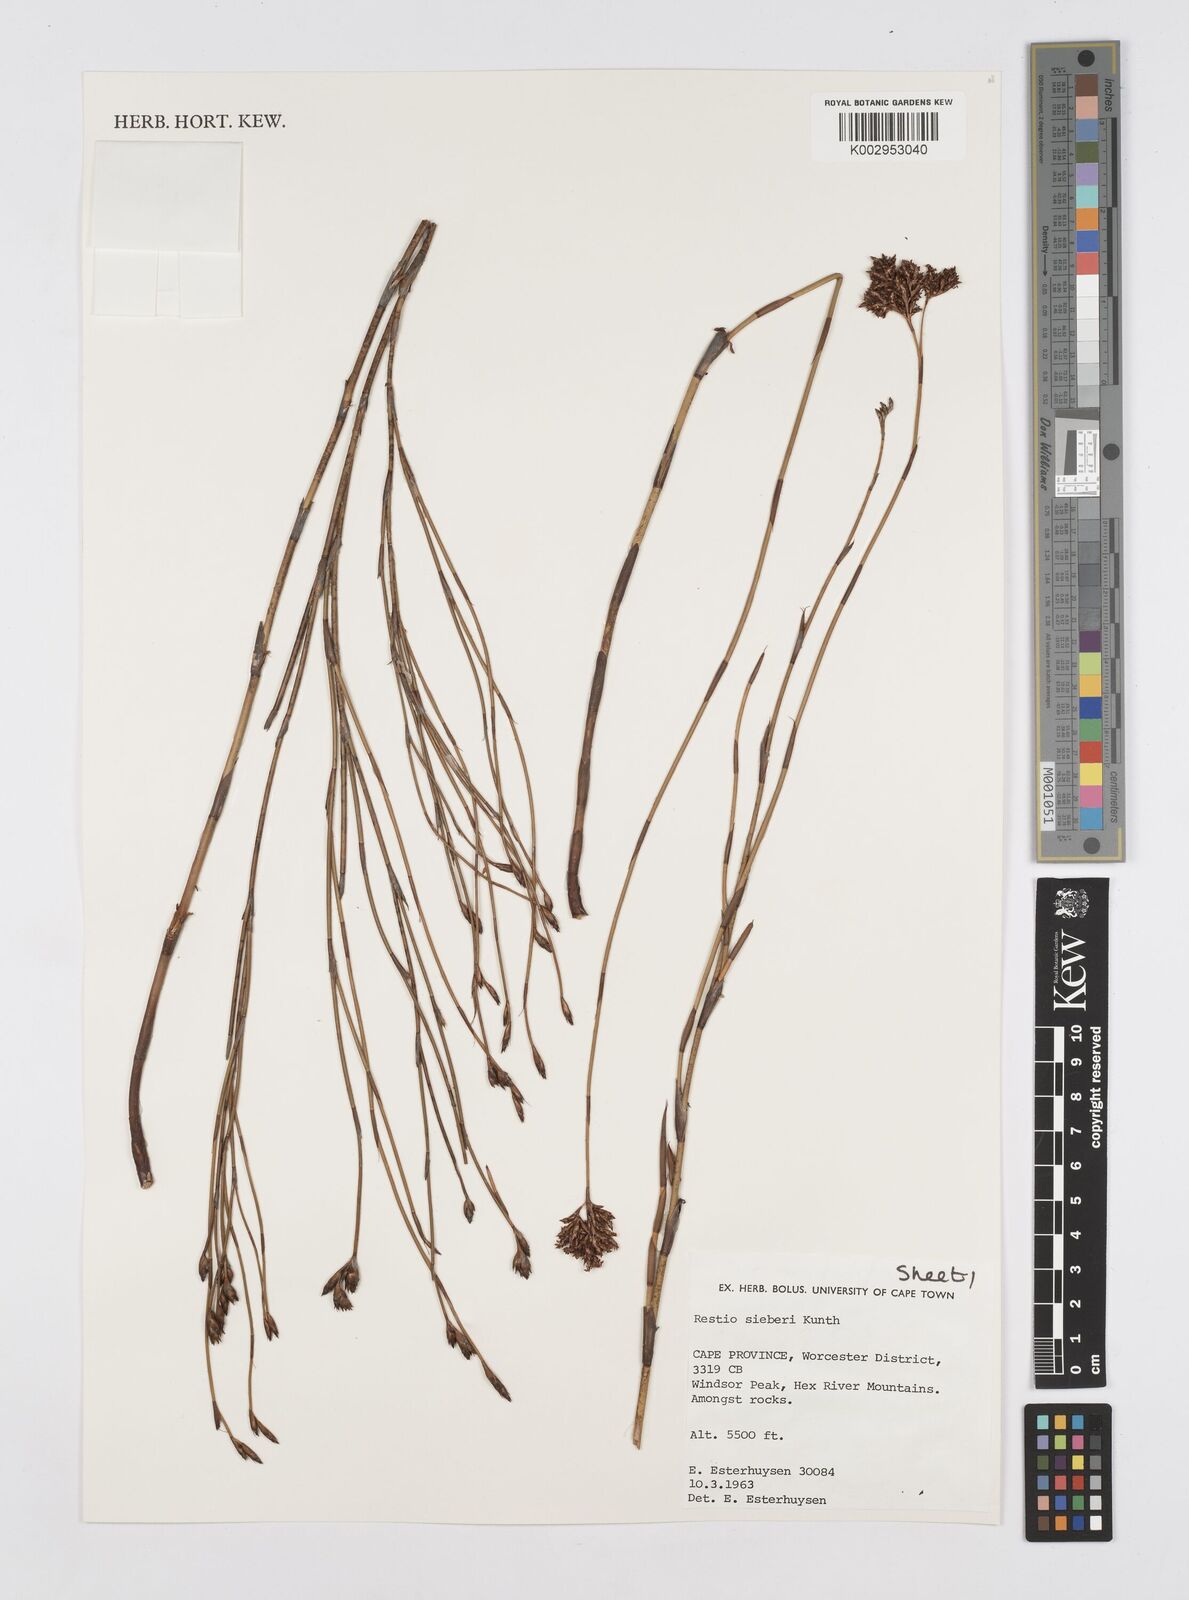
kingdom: Plantae
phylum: Tracheophyta
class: Liliopsida
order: Poales
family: Restionaceae
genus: Restio
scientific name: Restio sieberi
